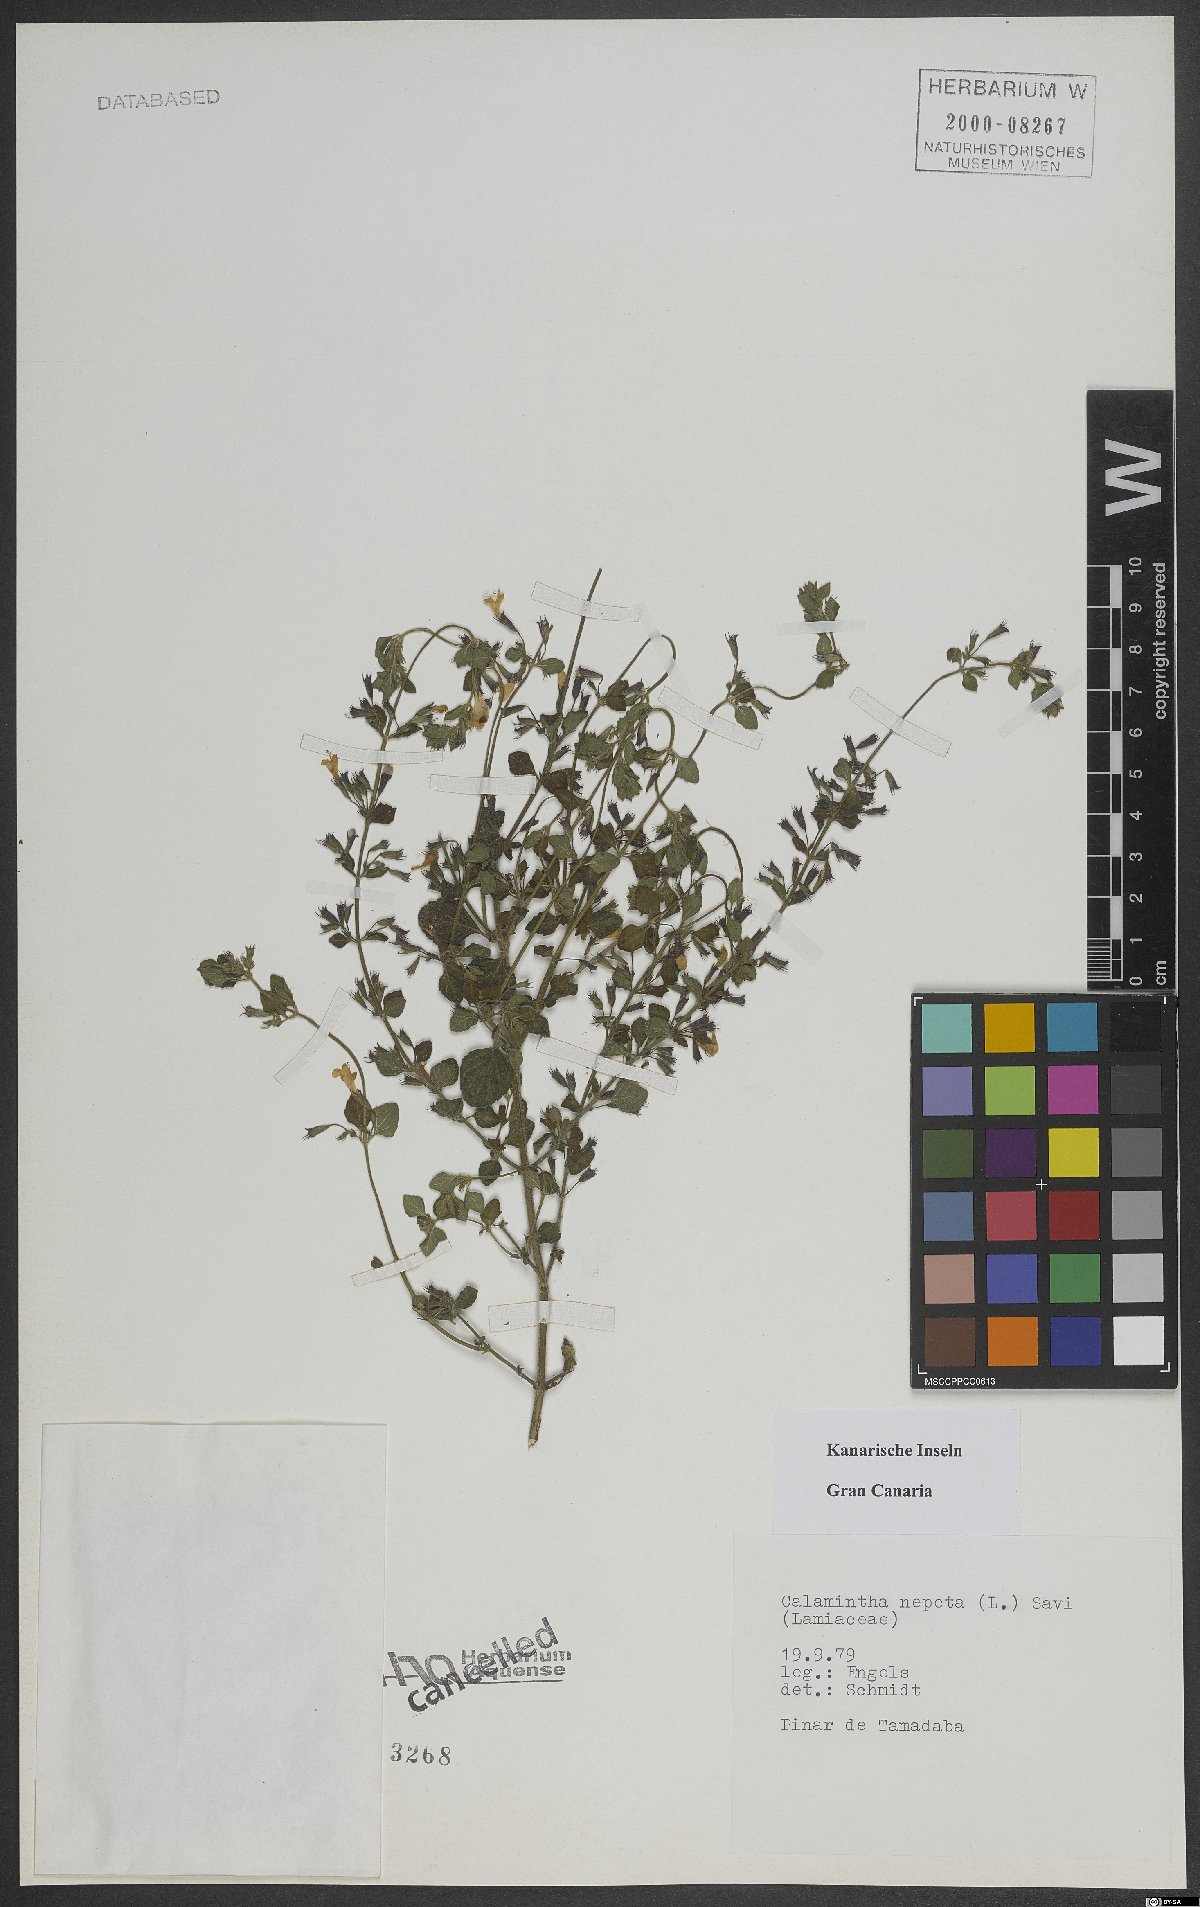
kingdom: Plantae
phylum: Tracheophyta
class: Magnoliopsida
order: Lamiales
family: Lamiaceae
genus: Clinopodium
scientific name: Clinopodium nepeta
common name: Lesser calamint
